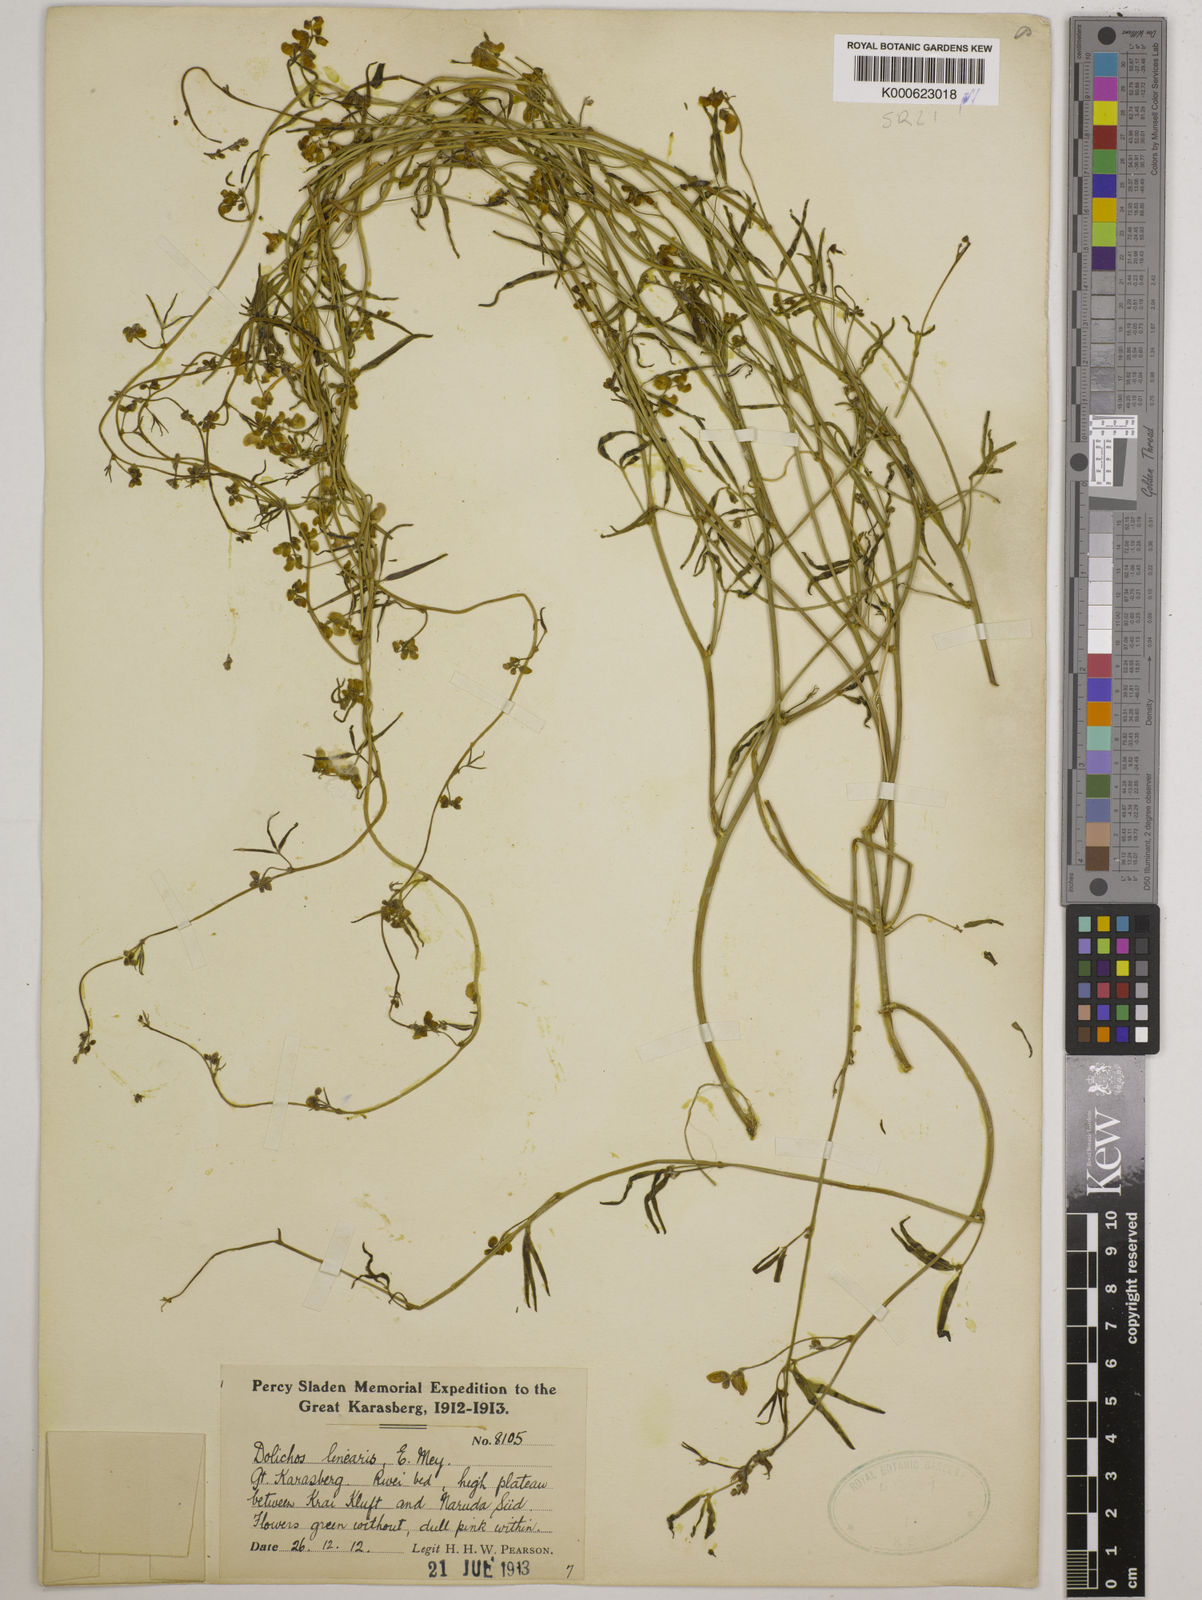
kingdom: Plantae
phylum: Tracheophyta
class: Magnoliopsida
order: Fabales
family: Fabaceae
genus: Dolichos
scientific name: Dolichos linearis
